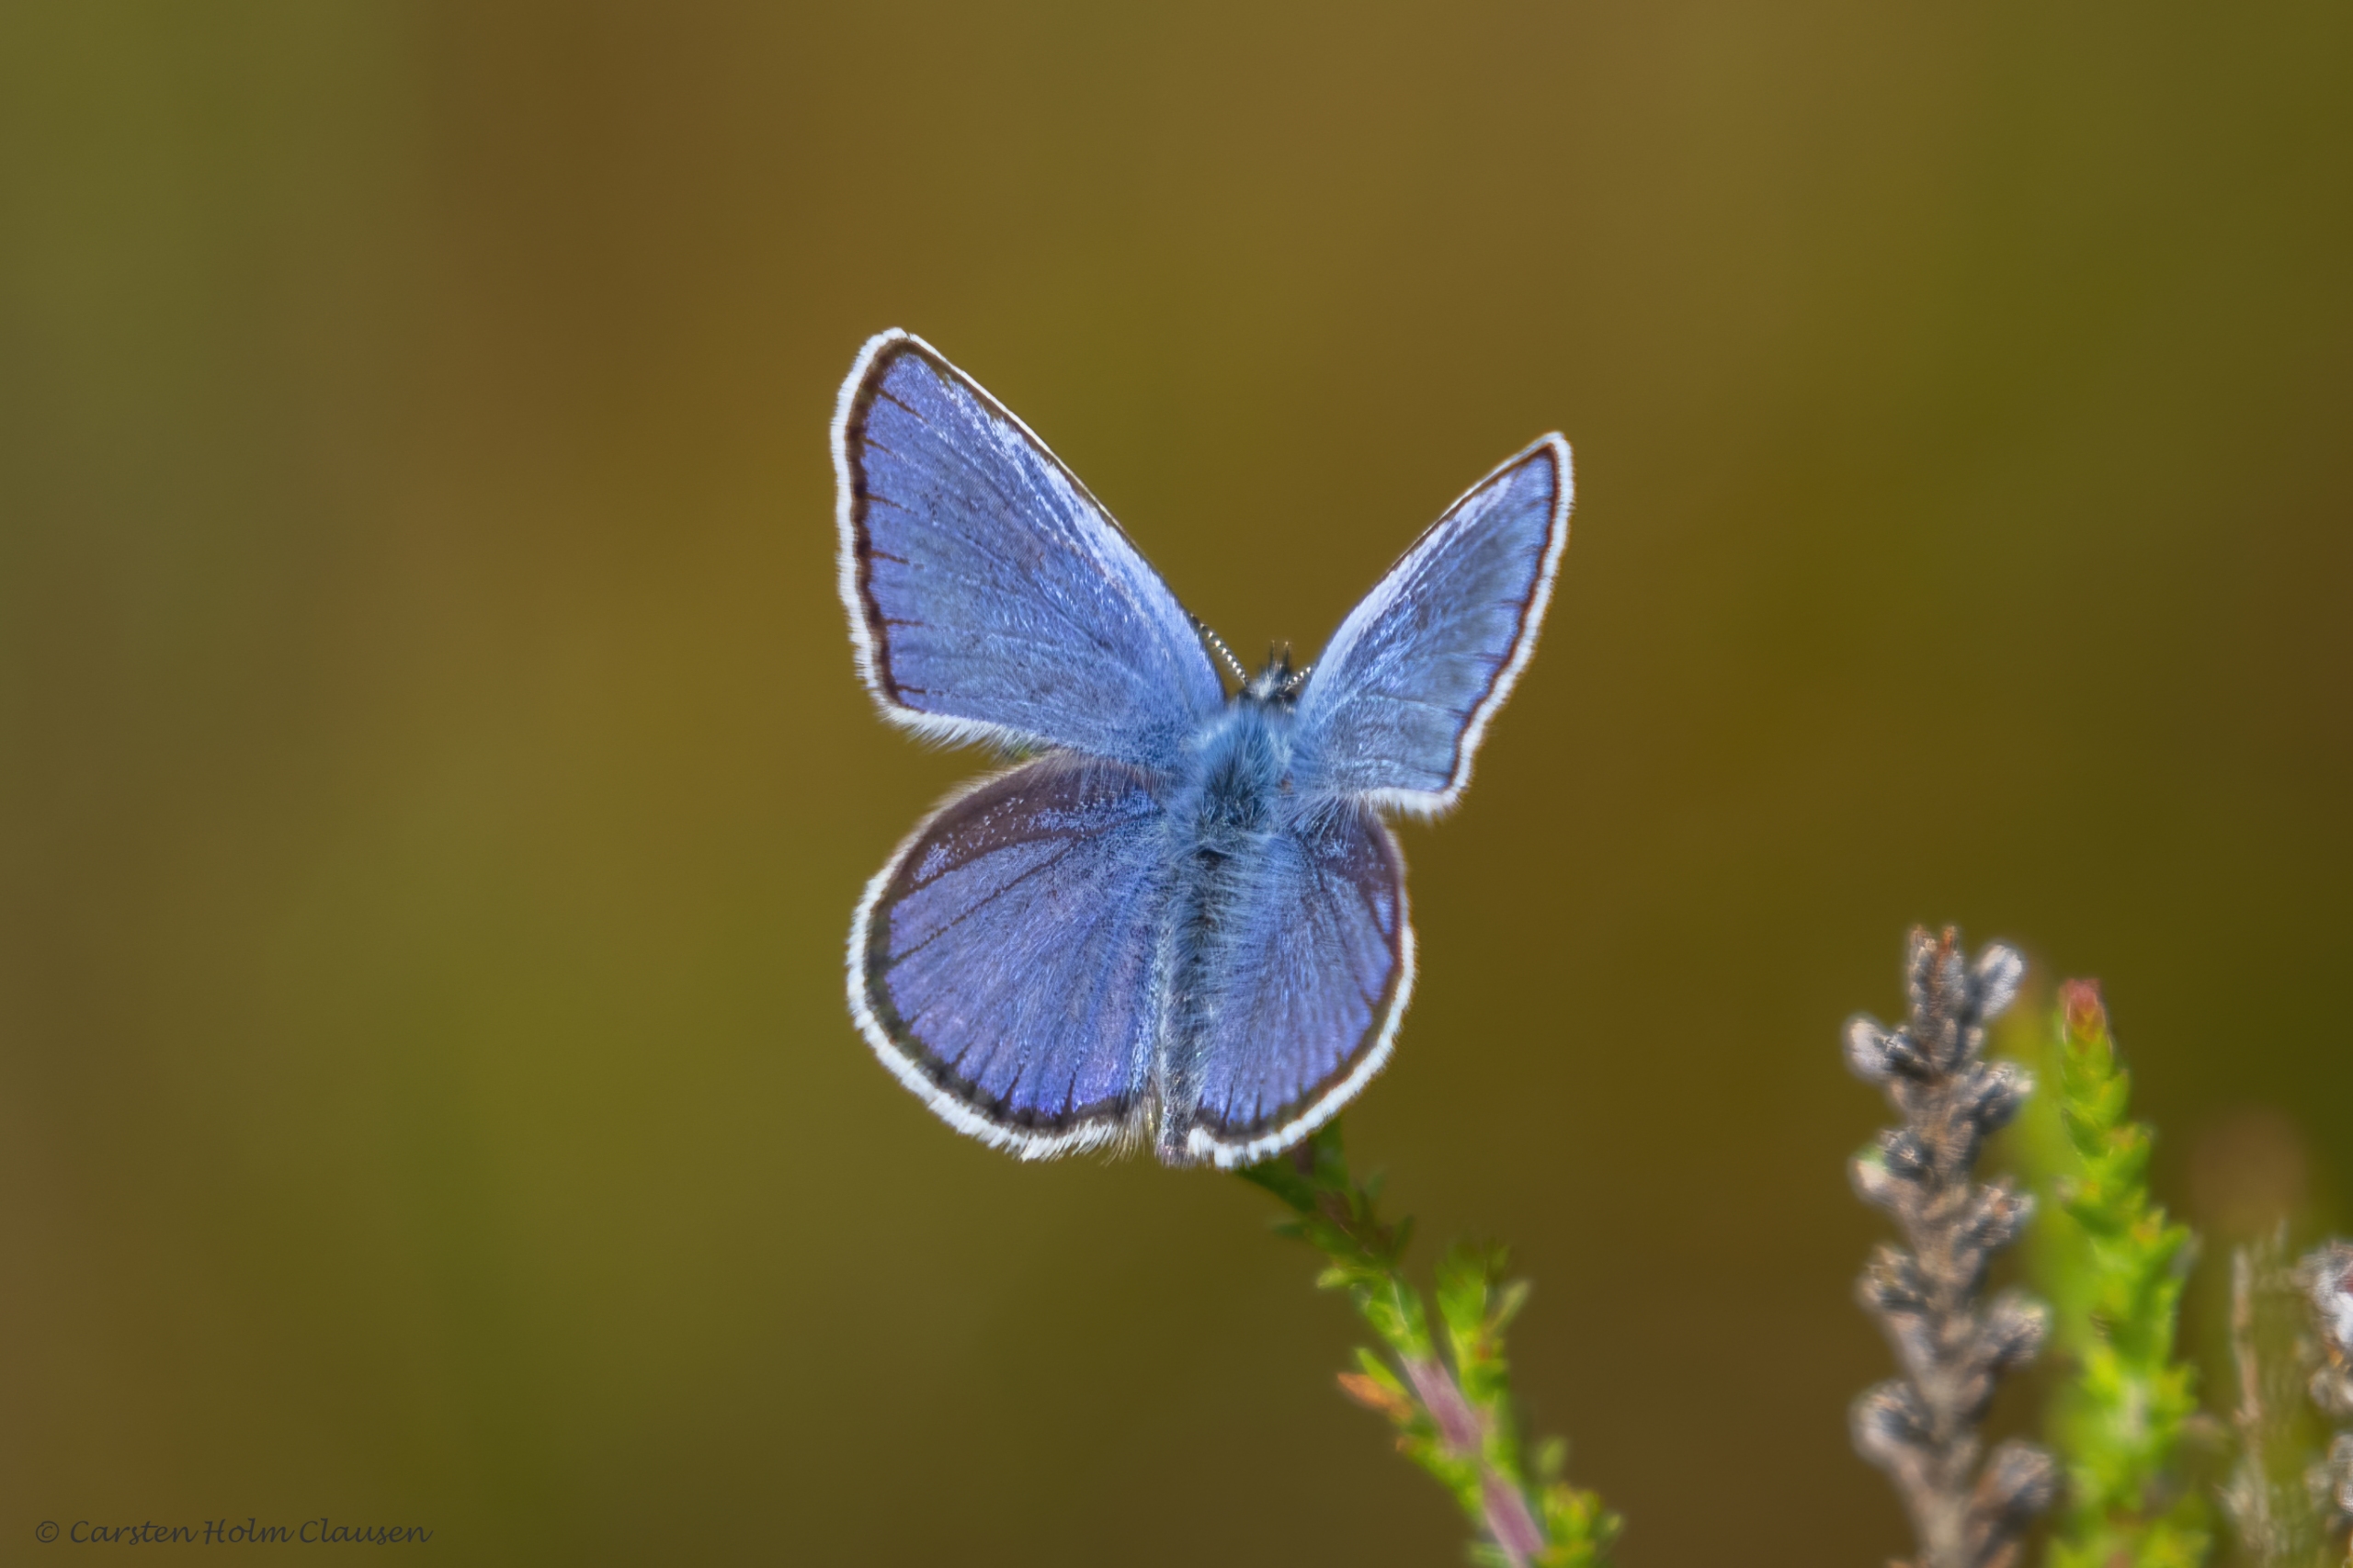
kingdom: Animalia
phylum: Arthropoda
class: Insecta
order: Lepidoptera
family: Lycaenidae
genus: Lycaeides
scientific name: Lycaeides idas
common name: Foranderlig blåfugl
